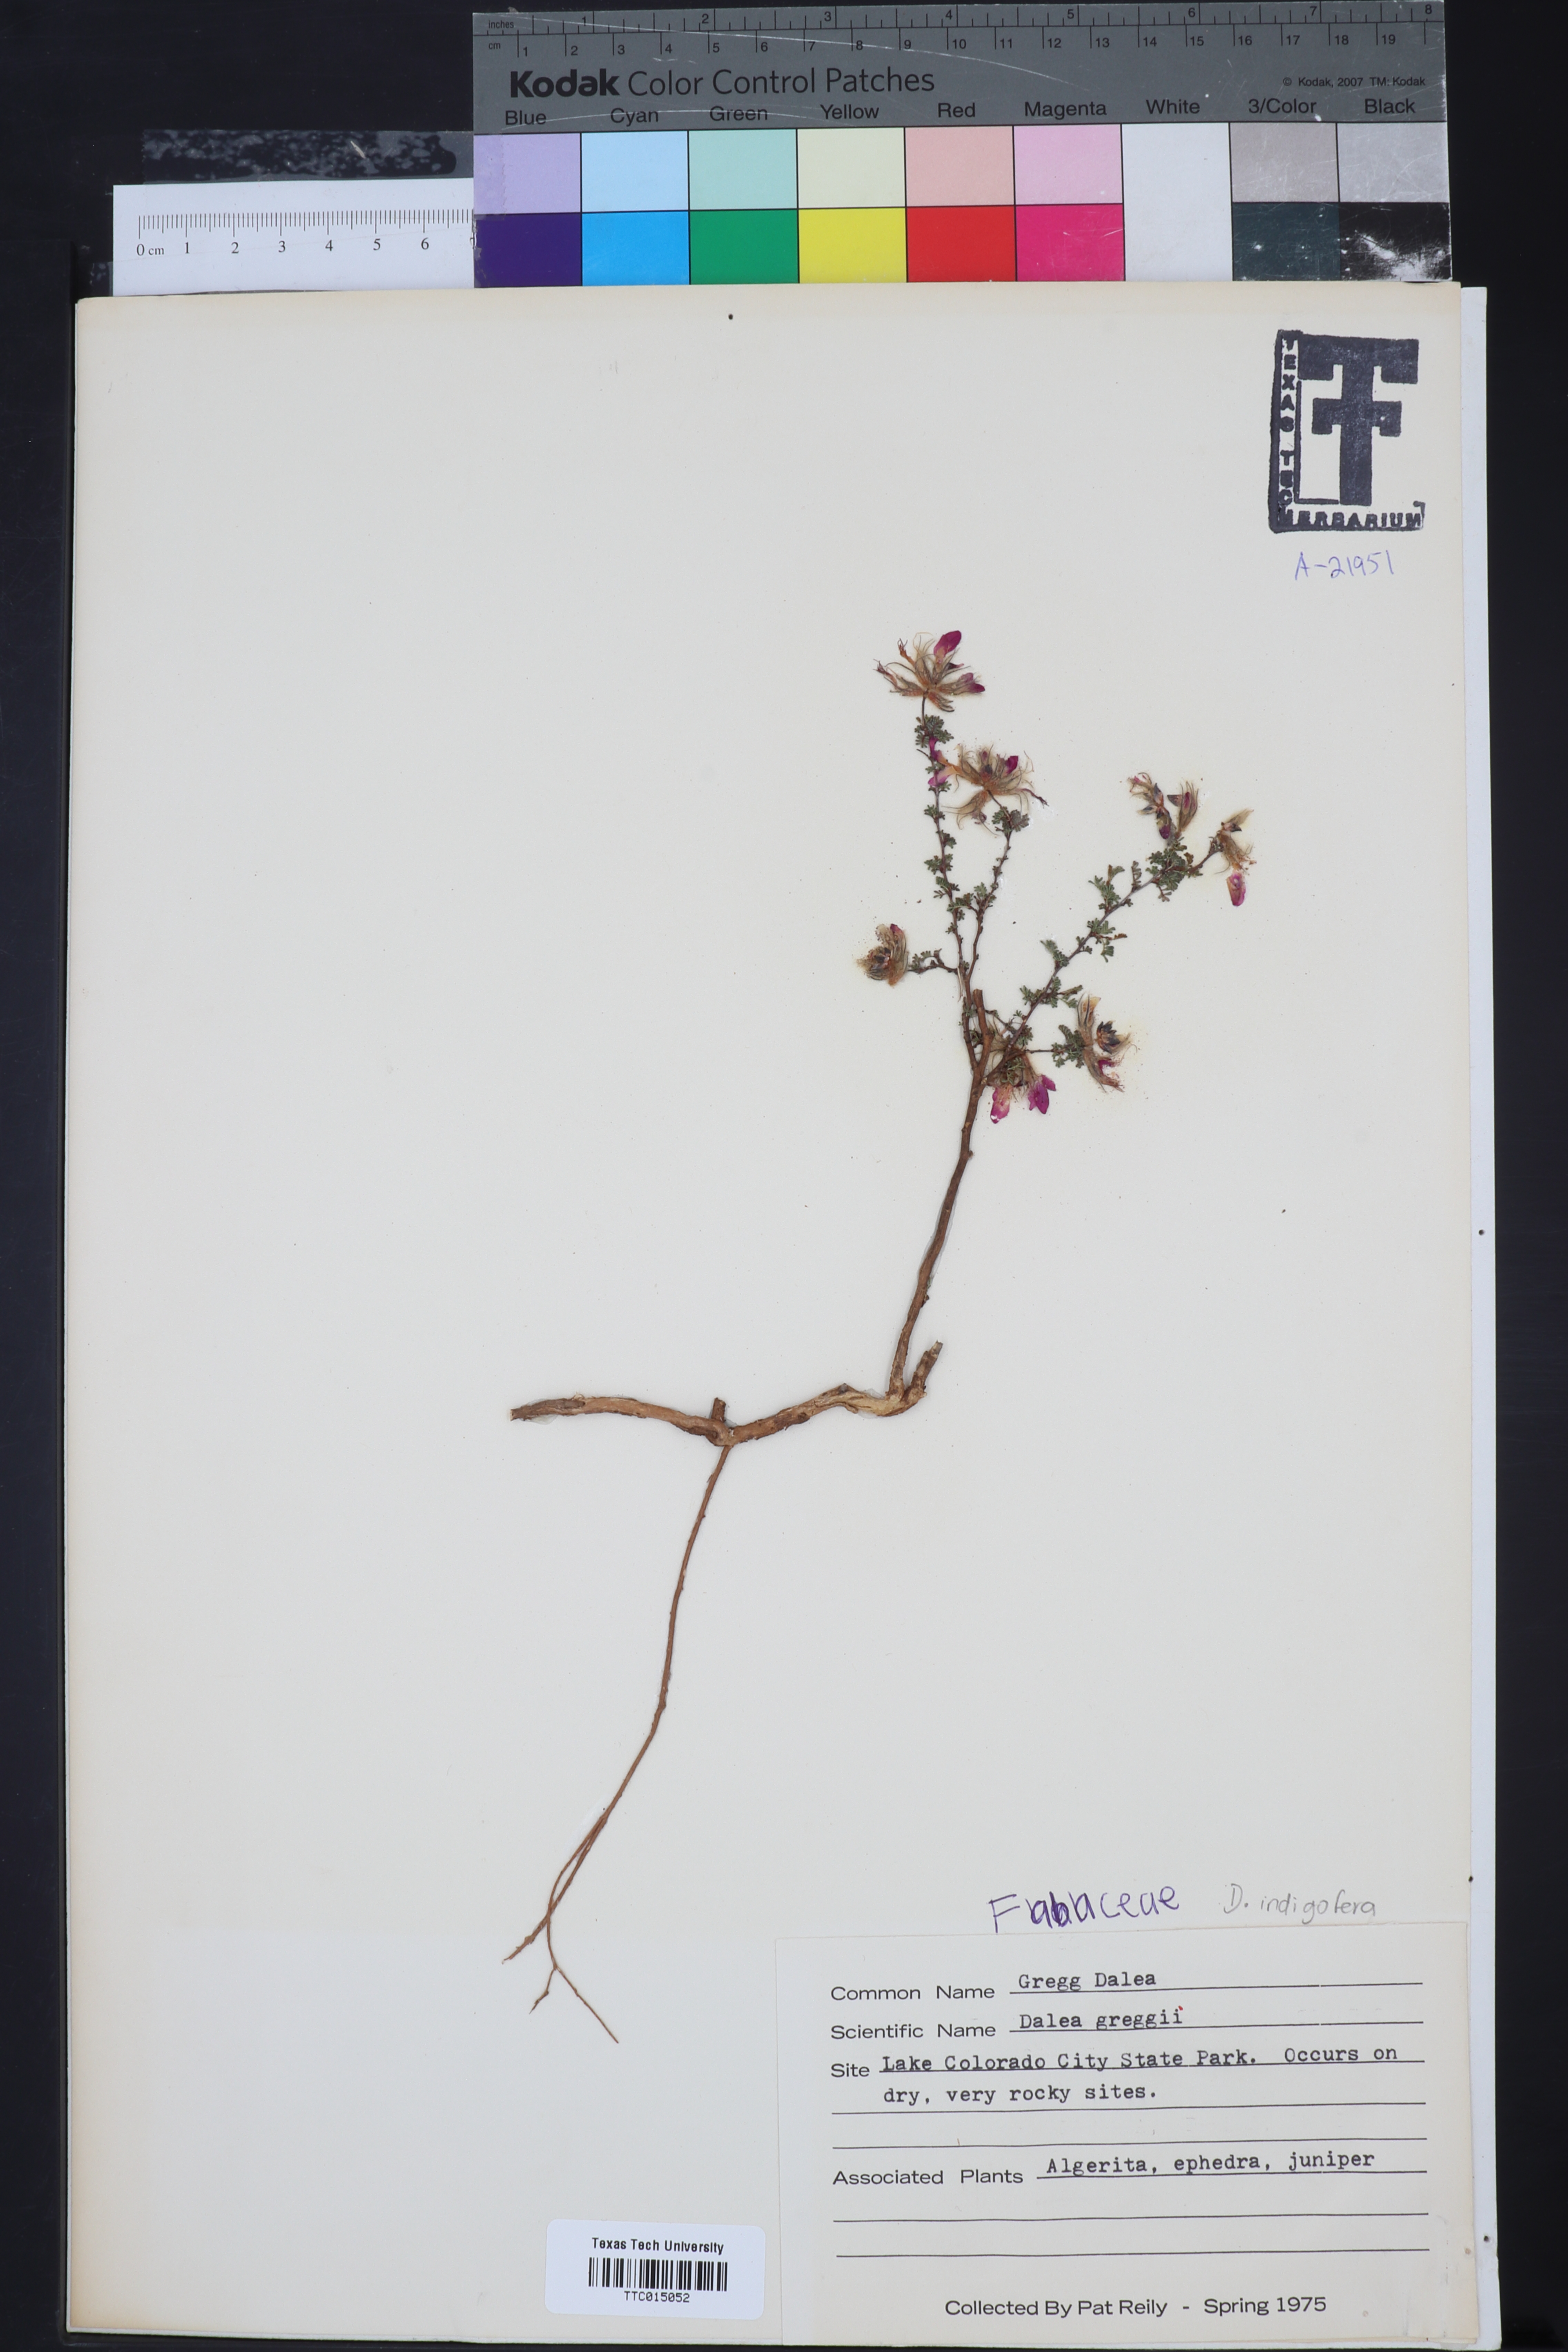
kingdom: Plantae
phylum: Tracheophyta
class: Magnoliopsida
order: Fabales
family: Fabaceae
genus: Dalea
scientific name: Dalea greggii
